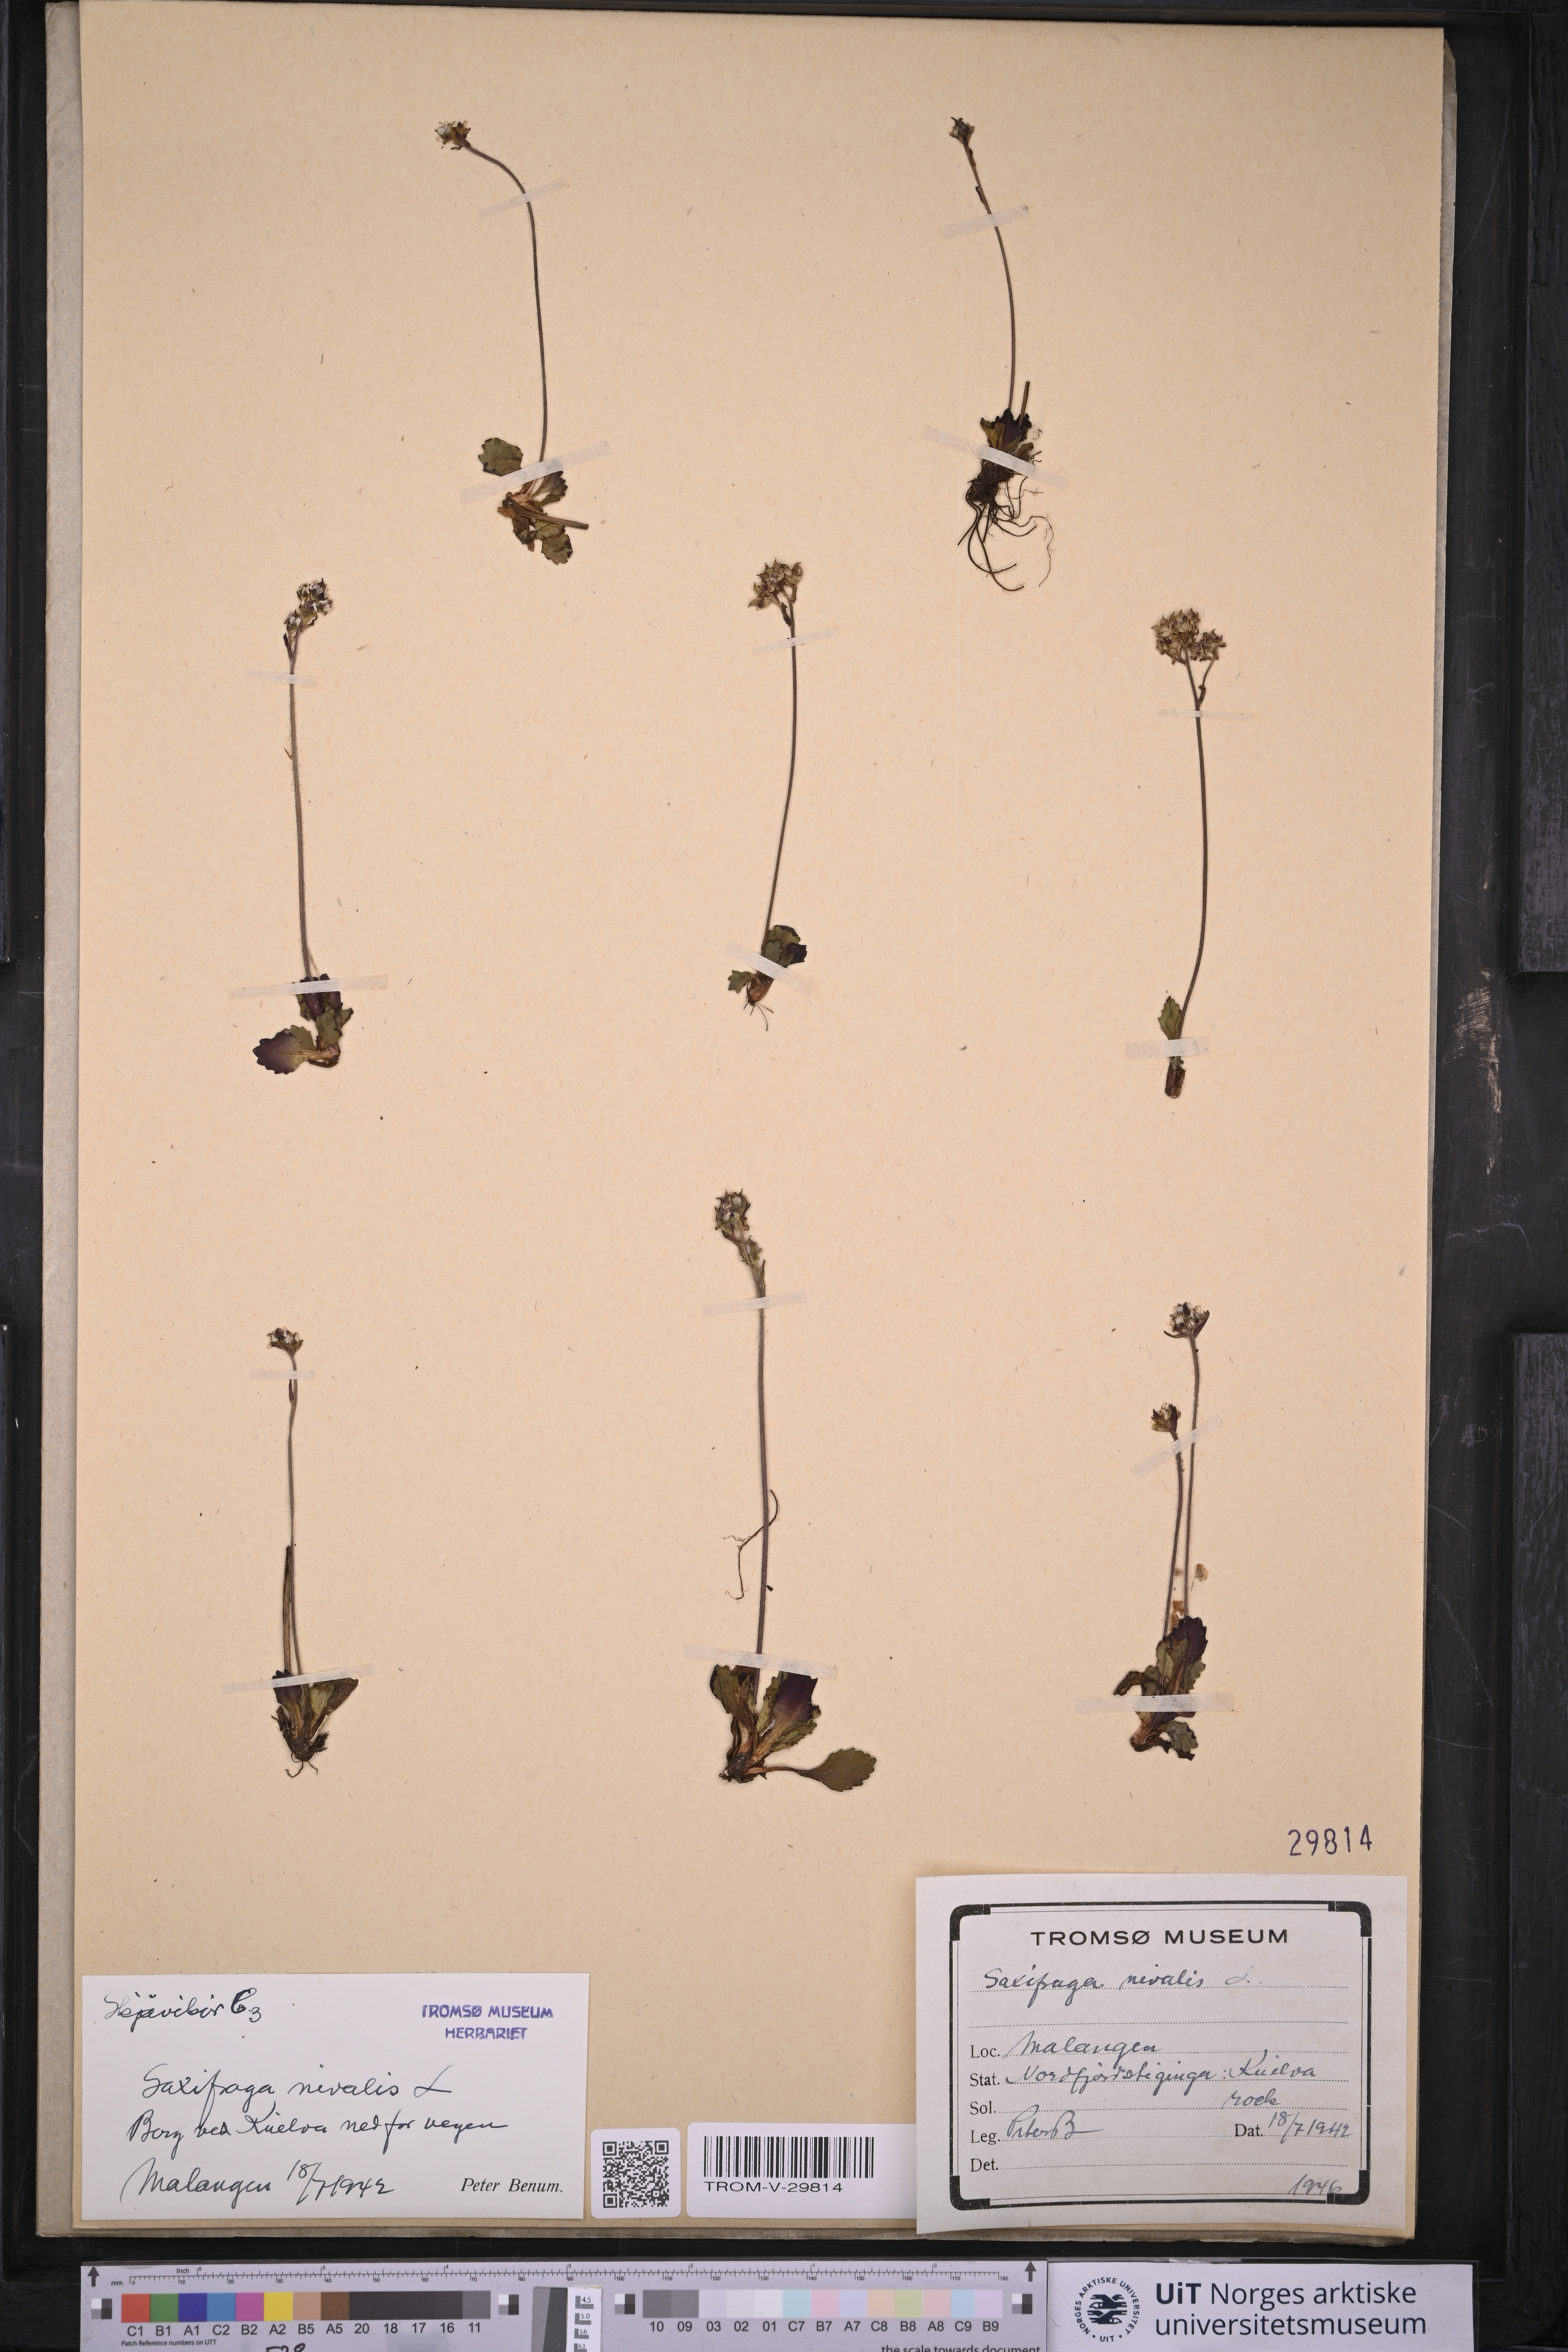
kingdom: Plantae
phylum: Tracheophyta
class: Magnoliopsida
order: Saxifragales
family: Saxifragaceae
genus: Micranthes
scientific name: Micranthes nivalis
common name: Alpine saxifrage
